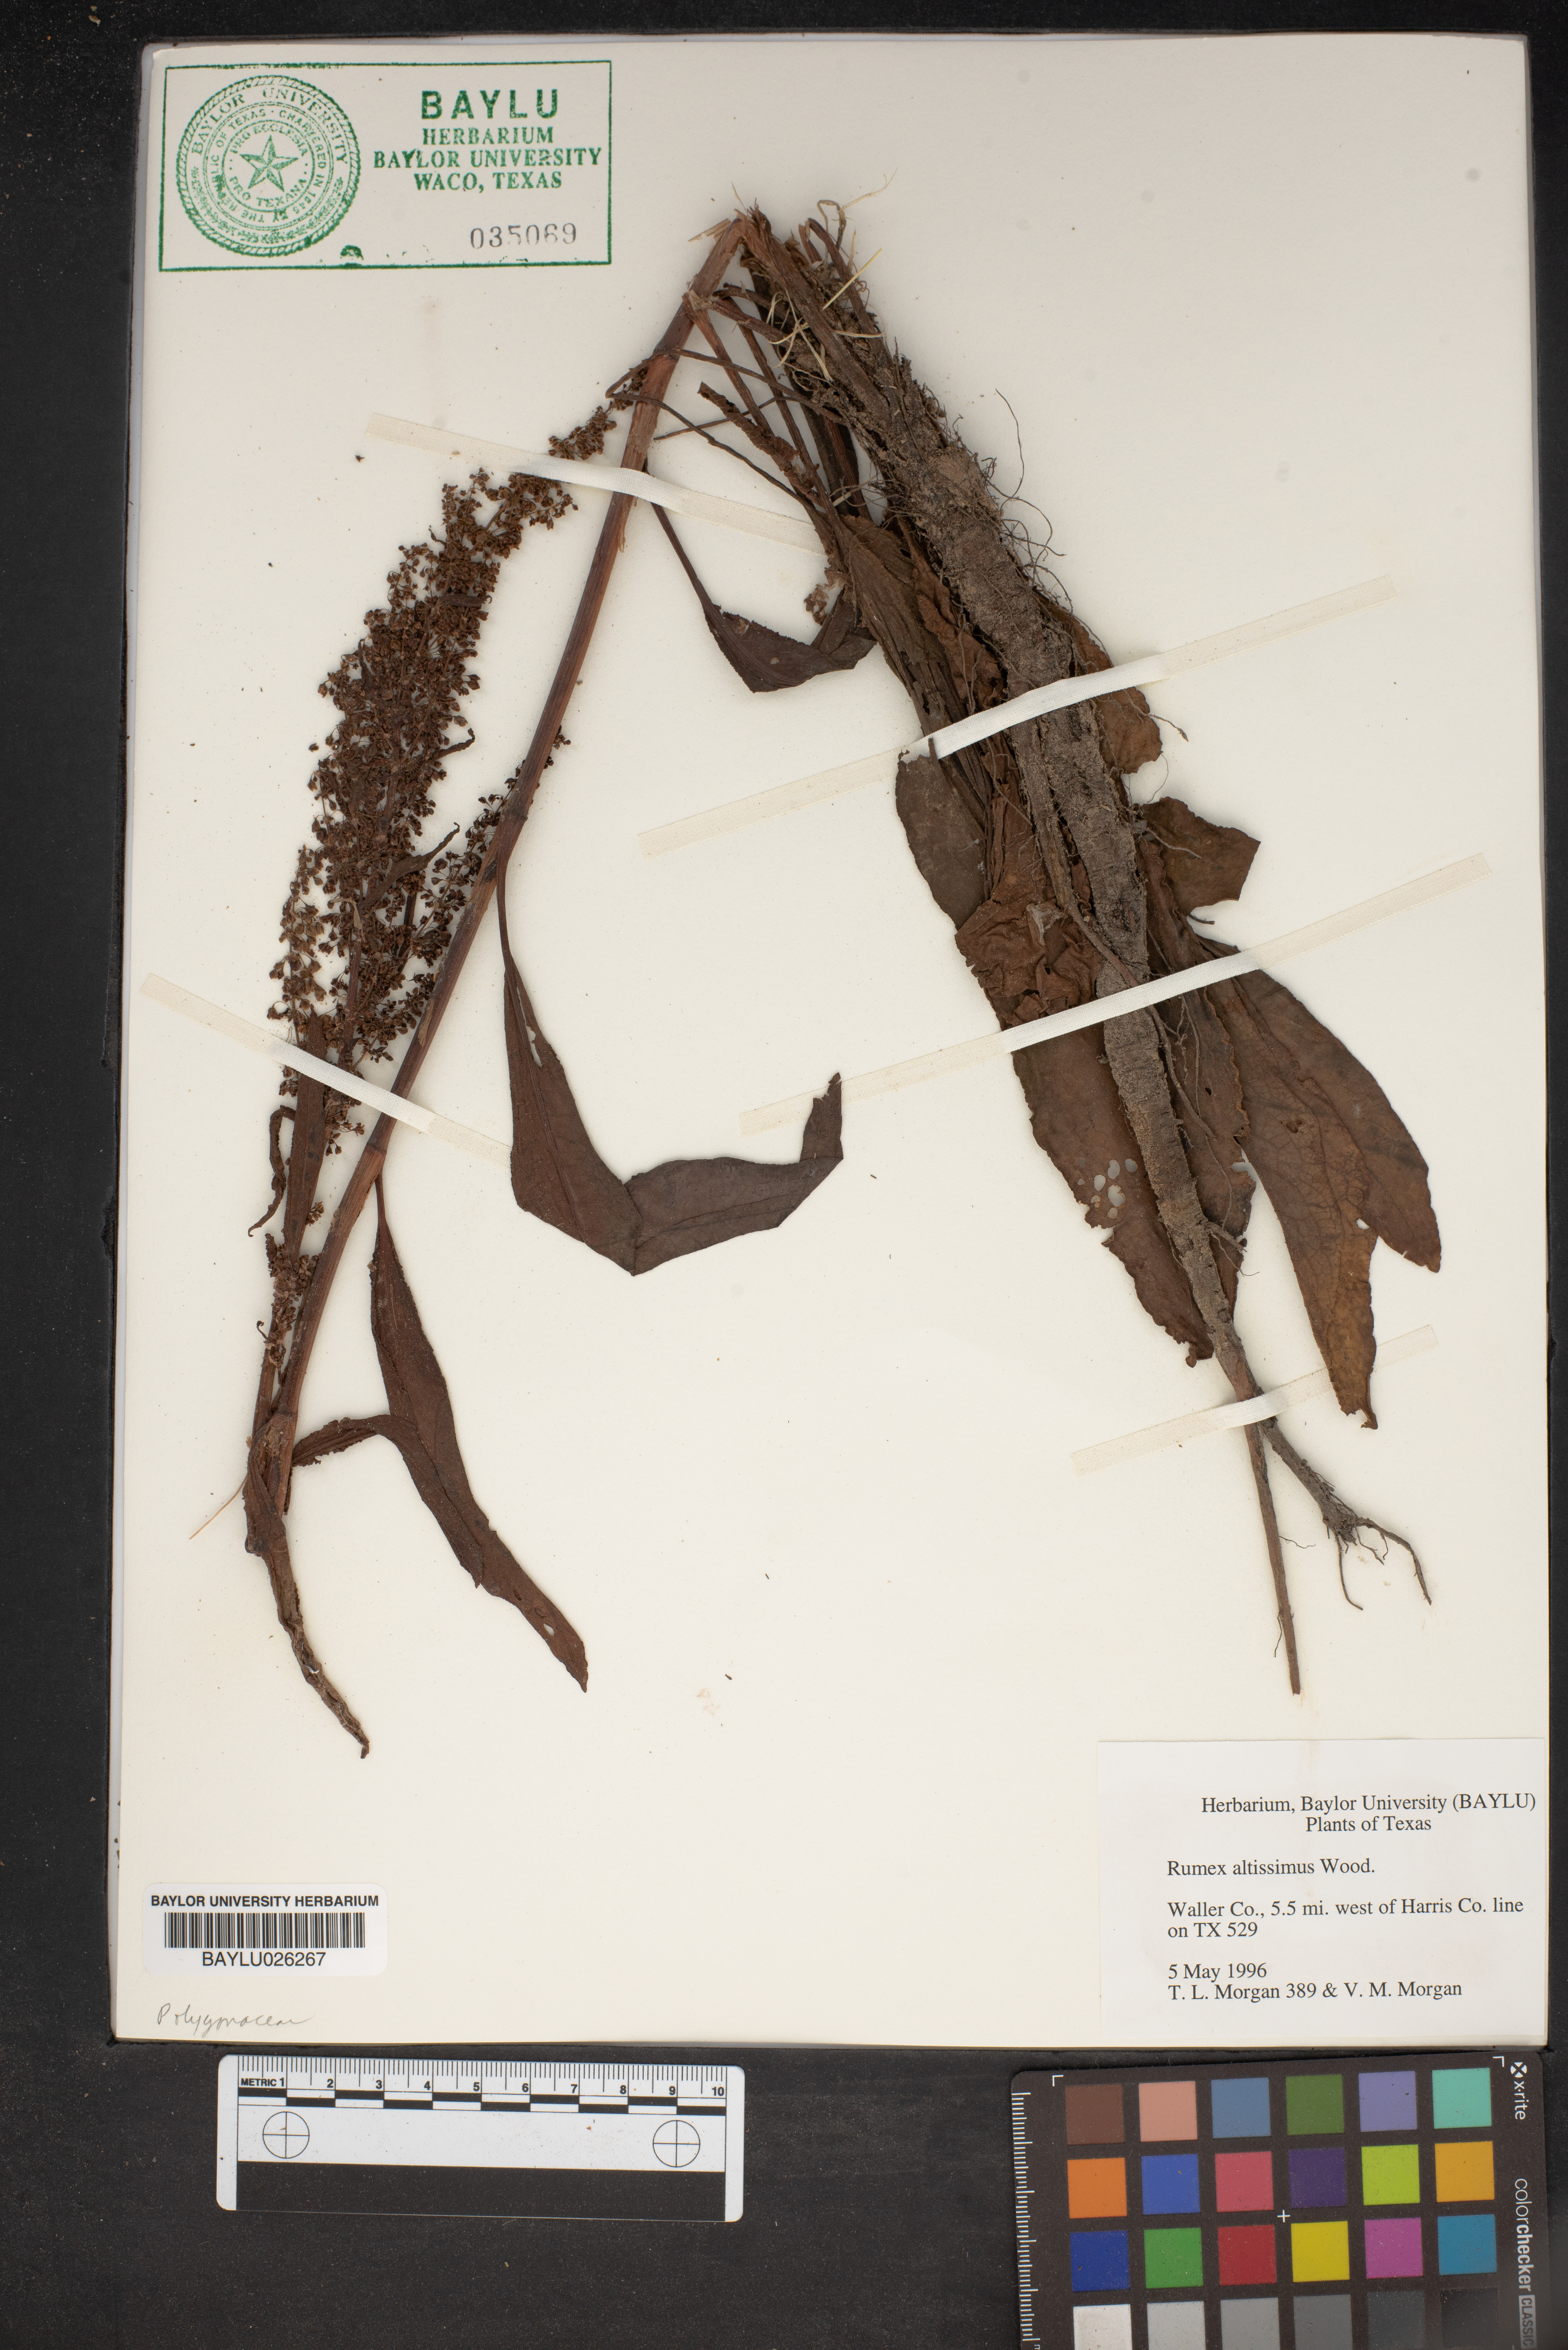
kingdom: Plantae
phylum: Tracheophyta
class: Magnoliopsida
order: Caryophyllales
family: Polygonaceae
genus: Rumex
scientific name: Rumex altissimus
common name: Smooth dock
